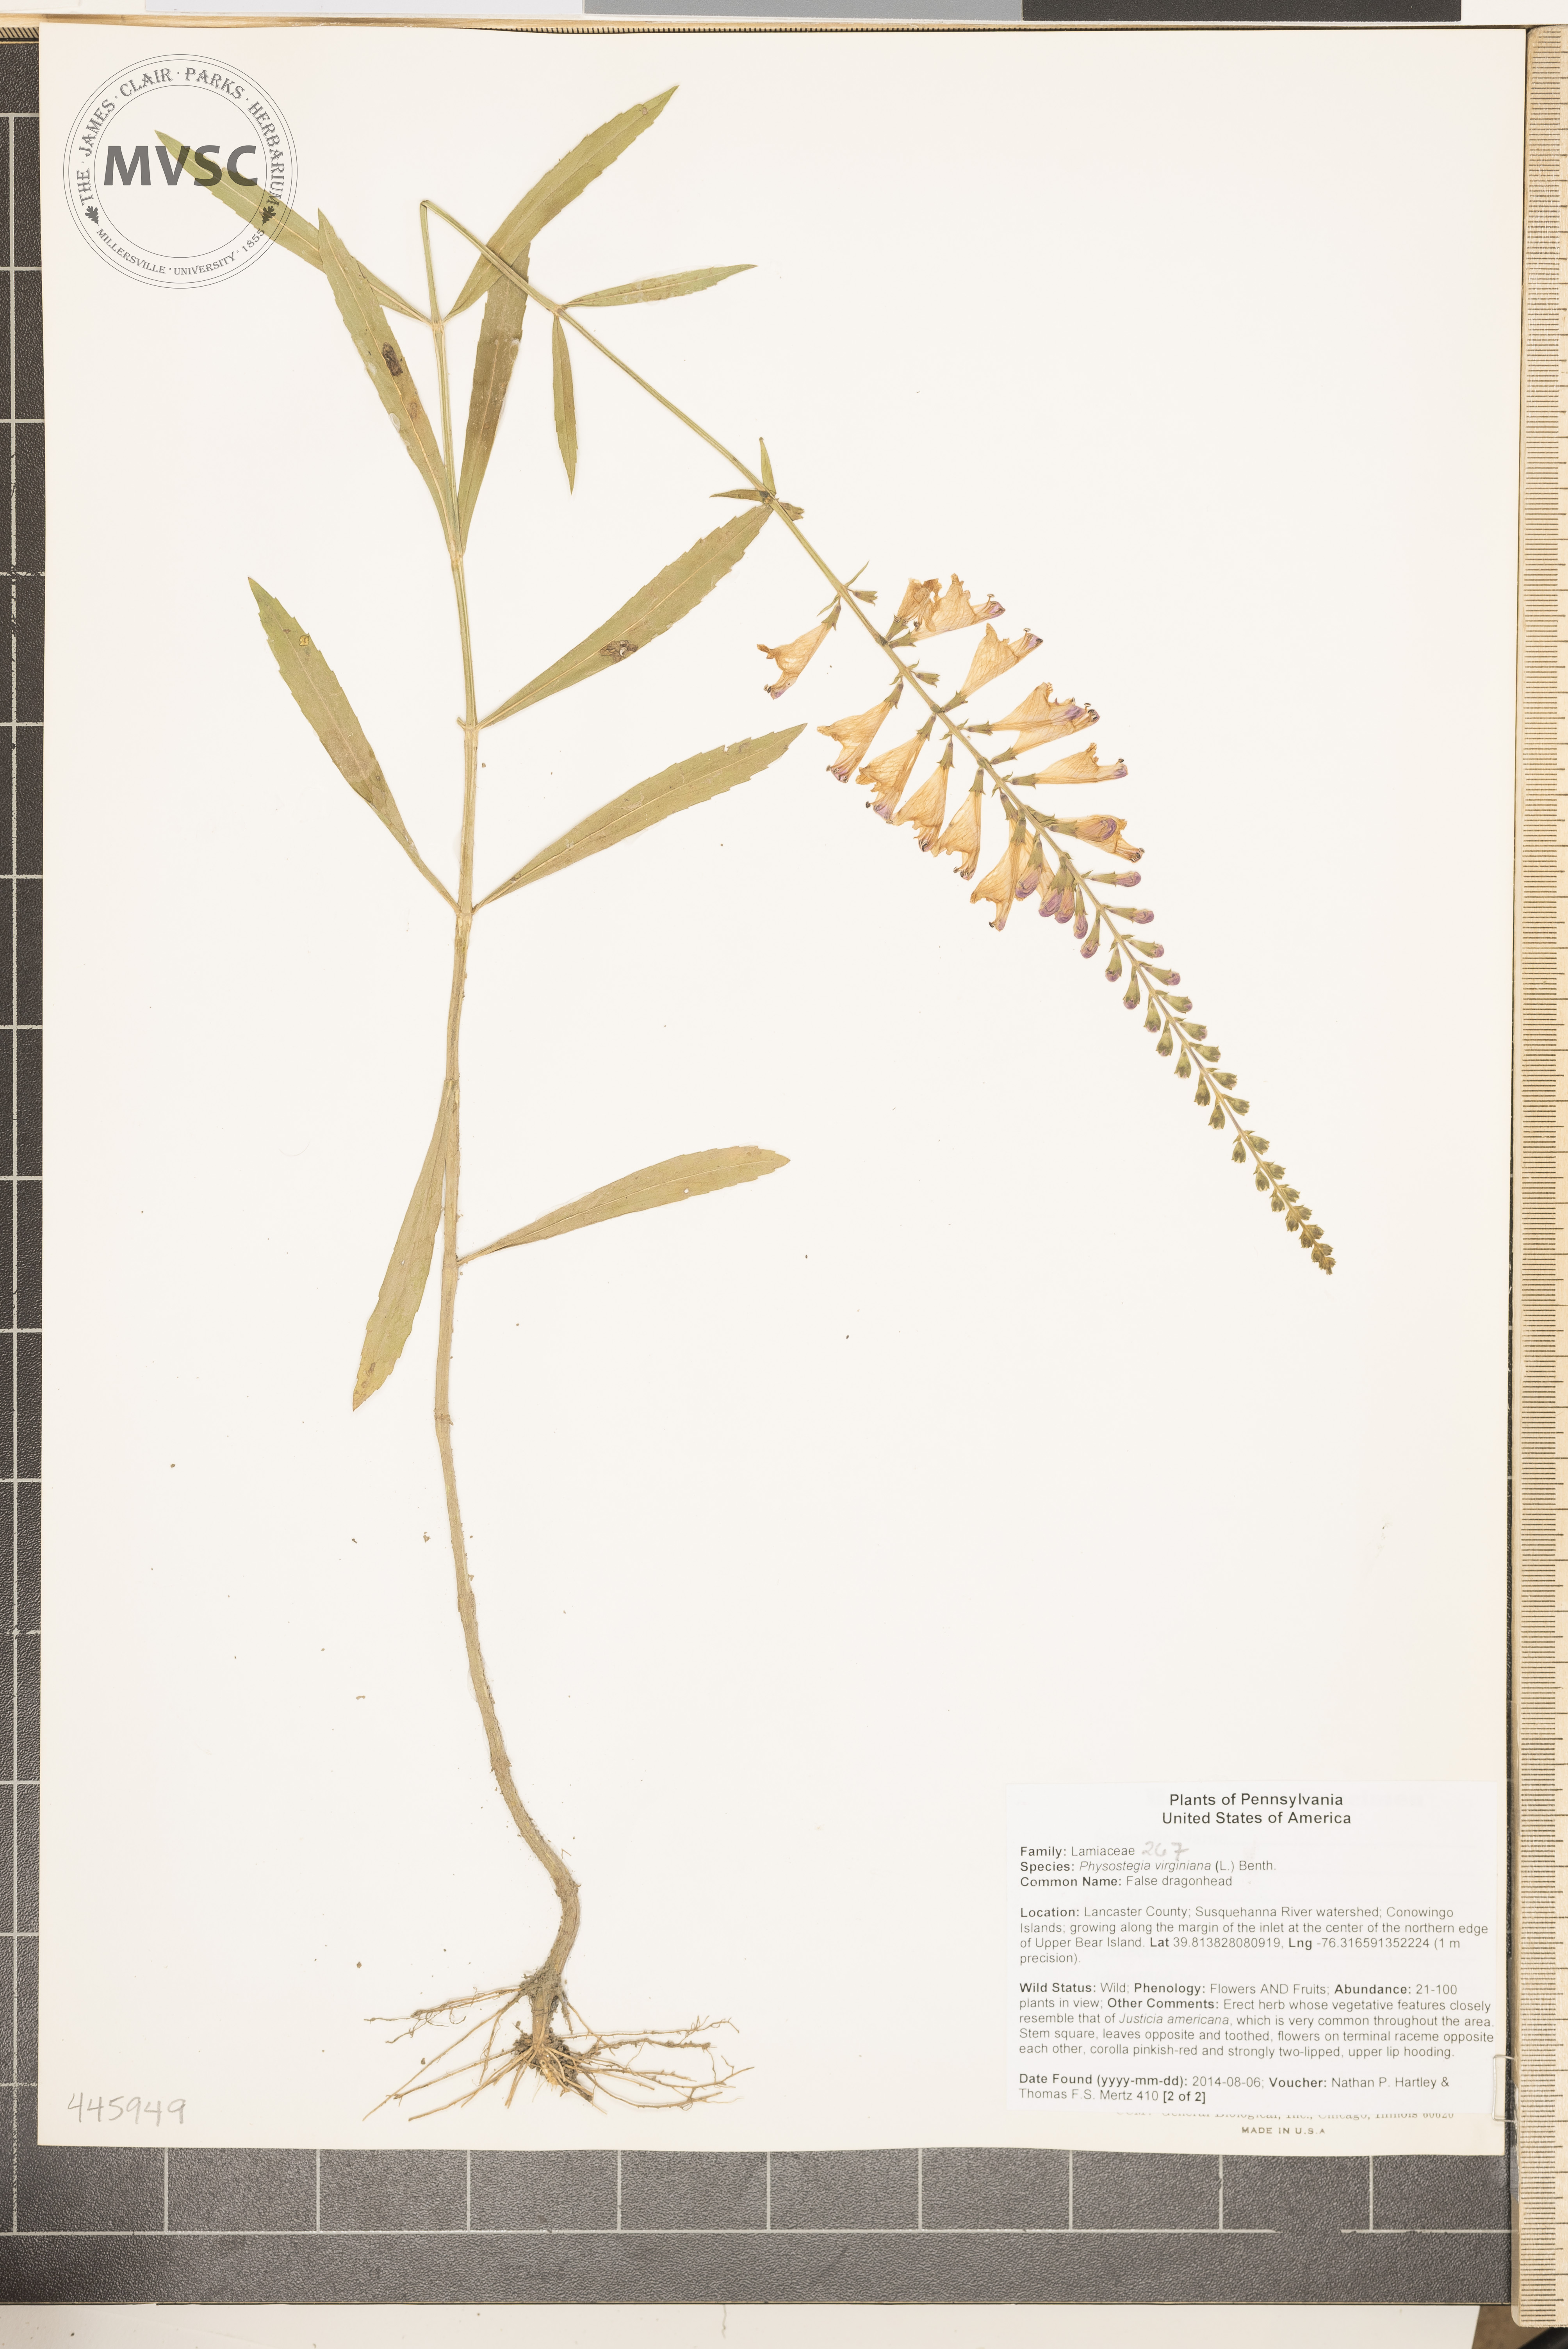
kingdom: Plantae
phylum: Tracheophyta
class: Magnoliopsida
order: Lamiales
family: Lamiaceae
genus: Physostegia
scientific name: Physostegia virginiana
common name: False dragonhead
